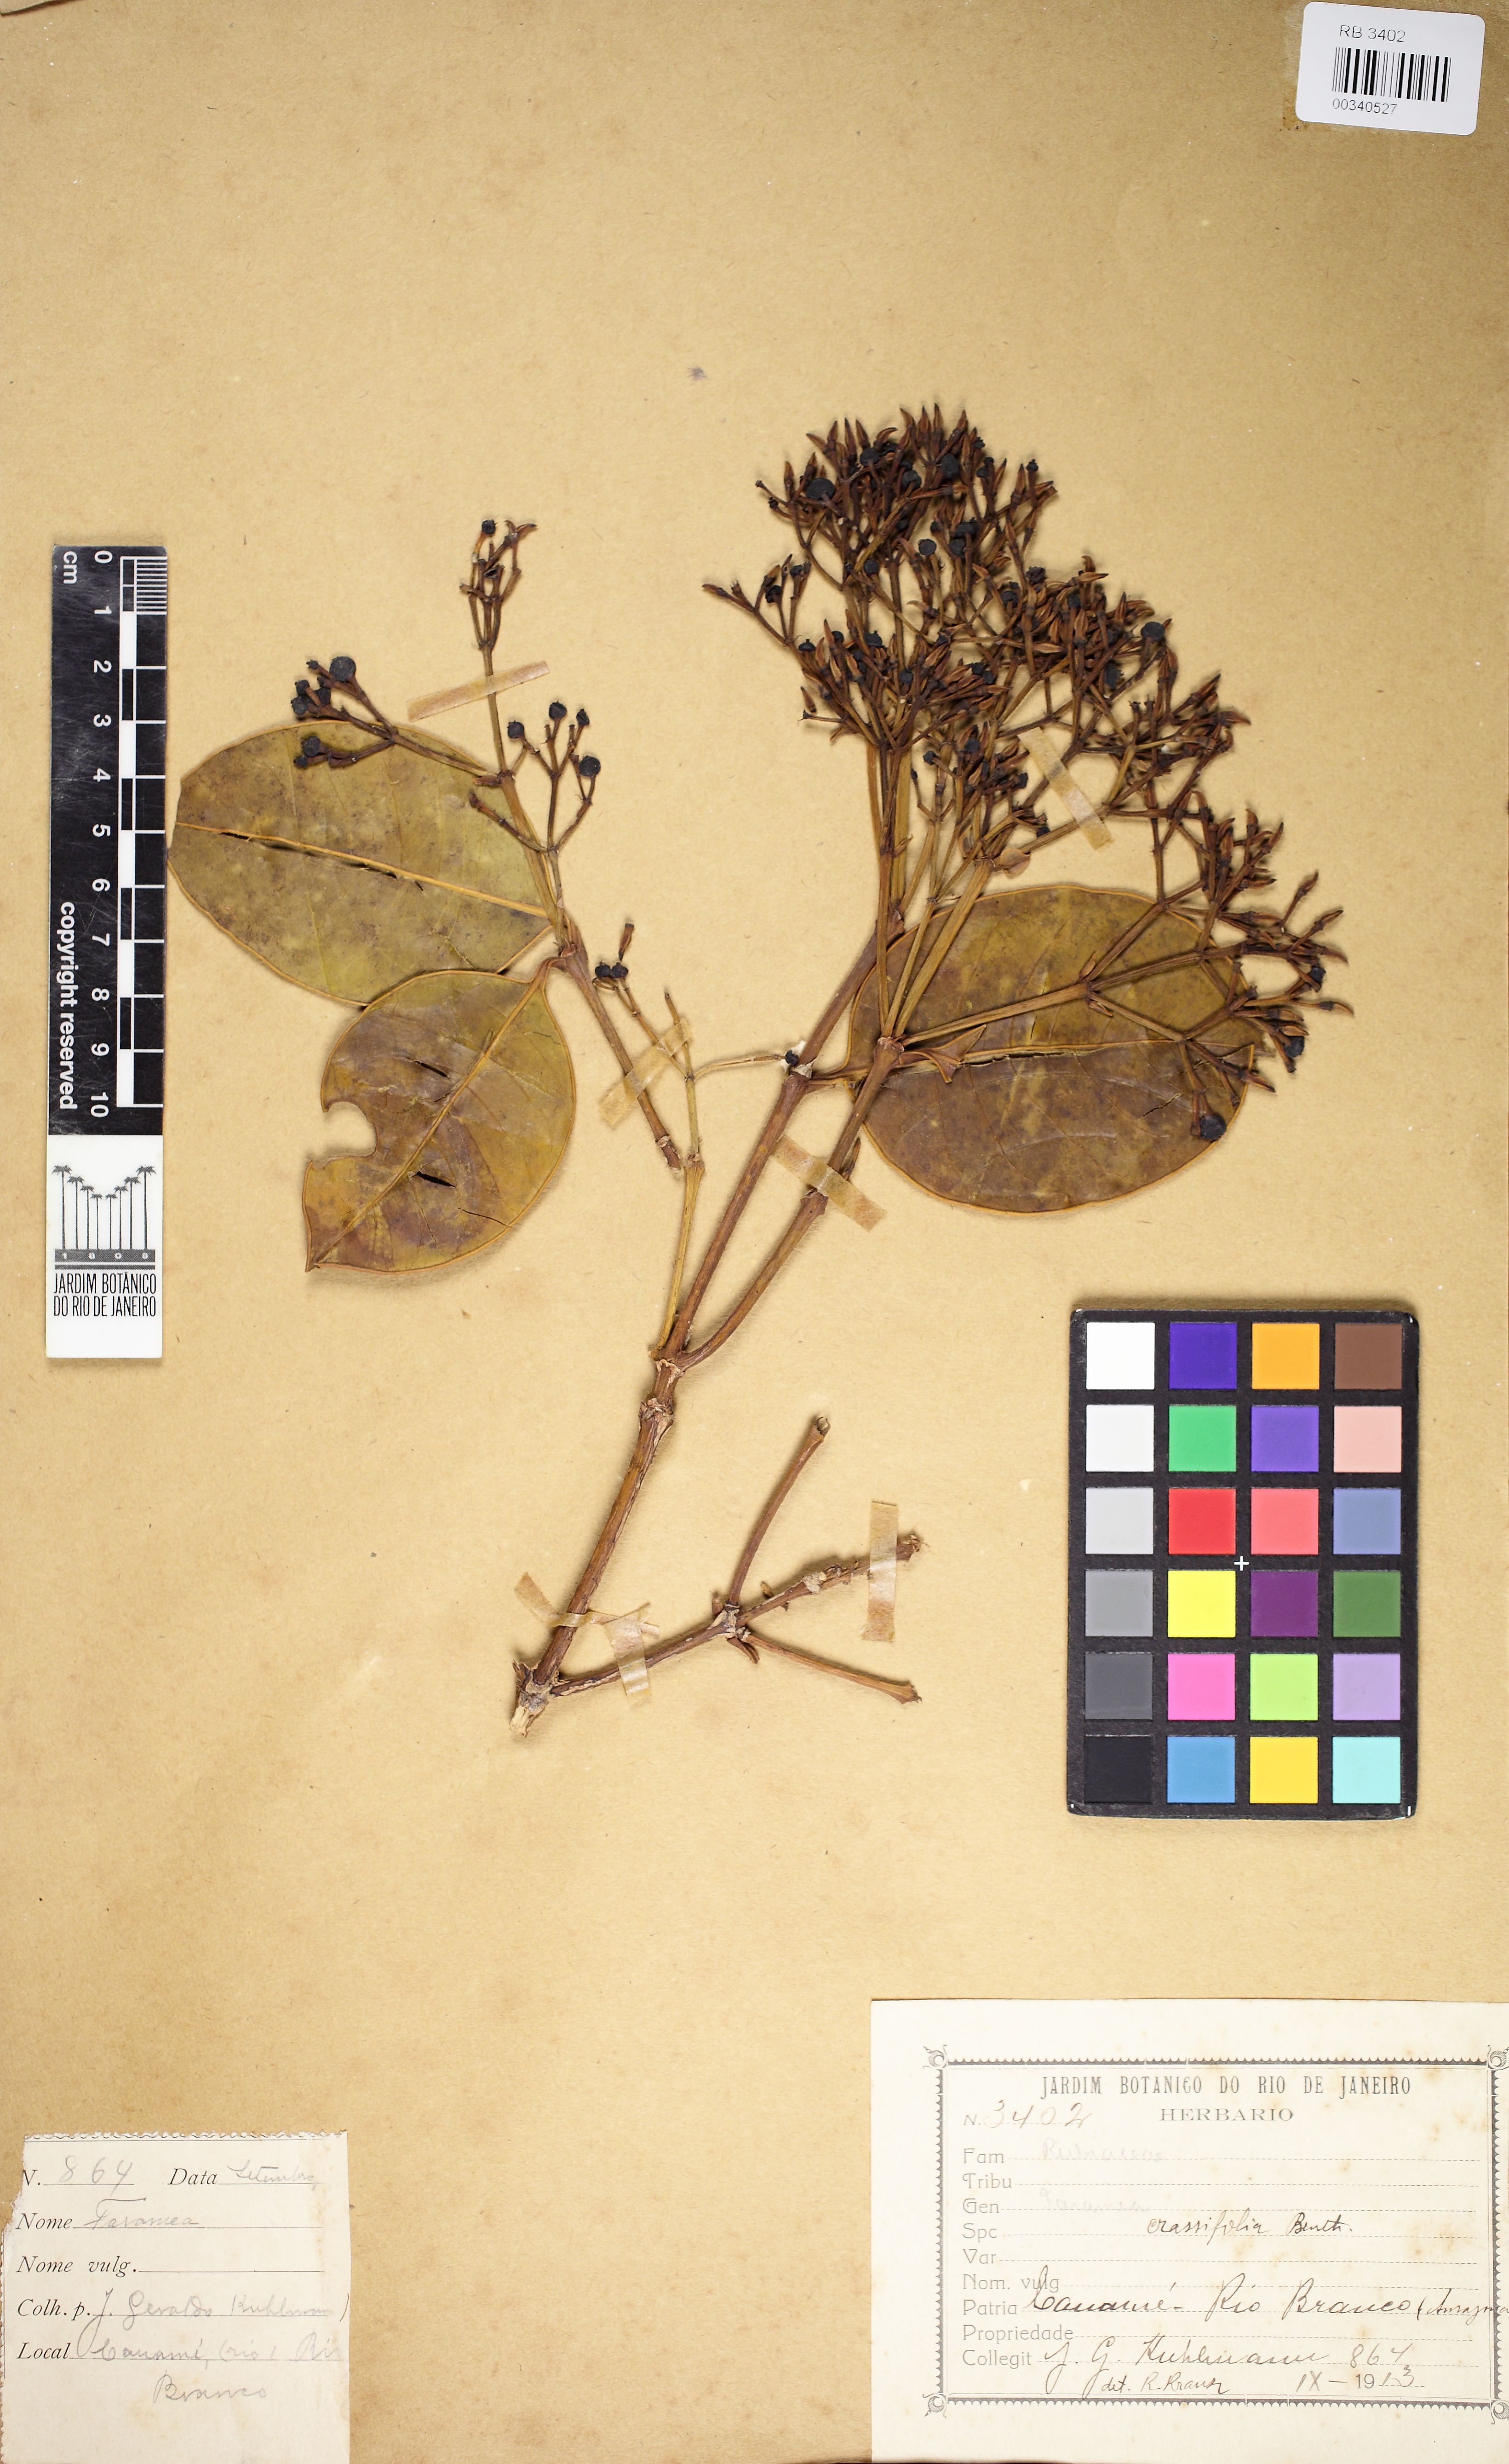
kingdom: Plantae
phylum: Tracheophyta
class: Magnoliopsida
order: Gentianales
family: Rubiaceae
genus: Faramea
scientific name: Faramea crassifolia
